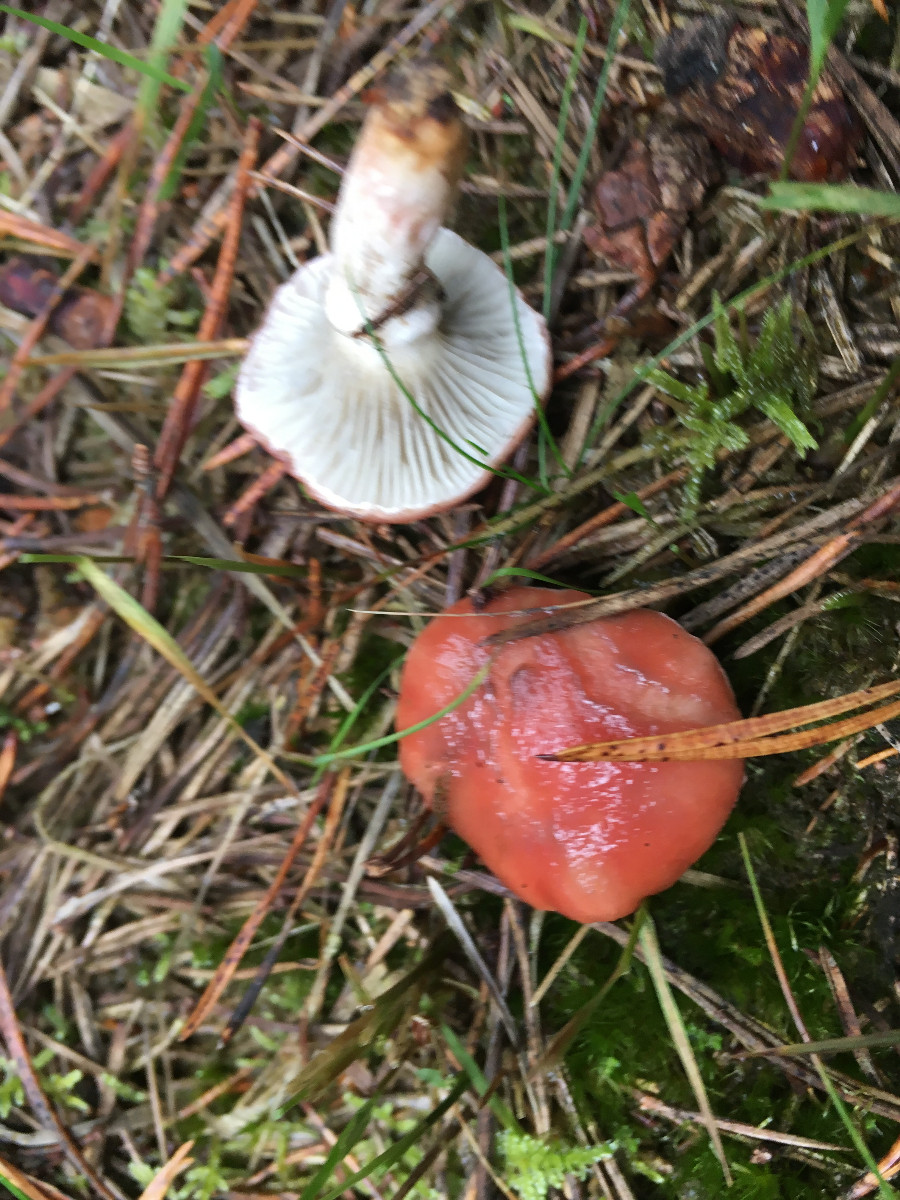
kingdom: Fungi
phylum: Basidiomycota
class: Agaricomycetes
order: Boletales
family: Gomphidiaceae
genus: Gomphidius
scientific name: Gomphidius roseus
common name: rosenrød slimslør
